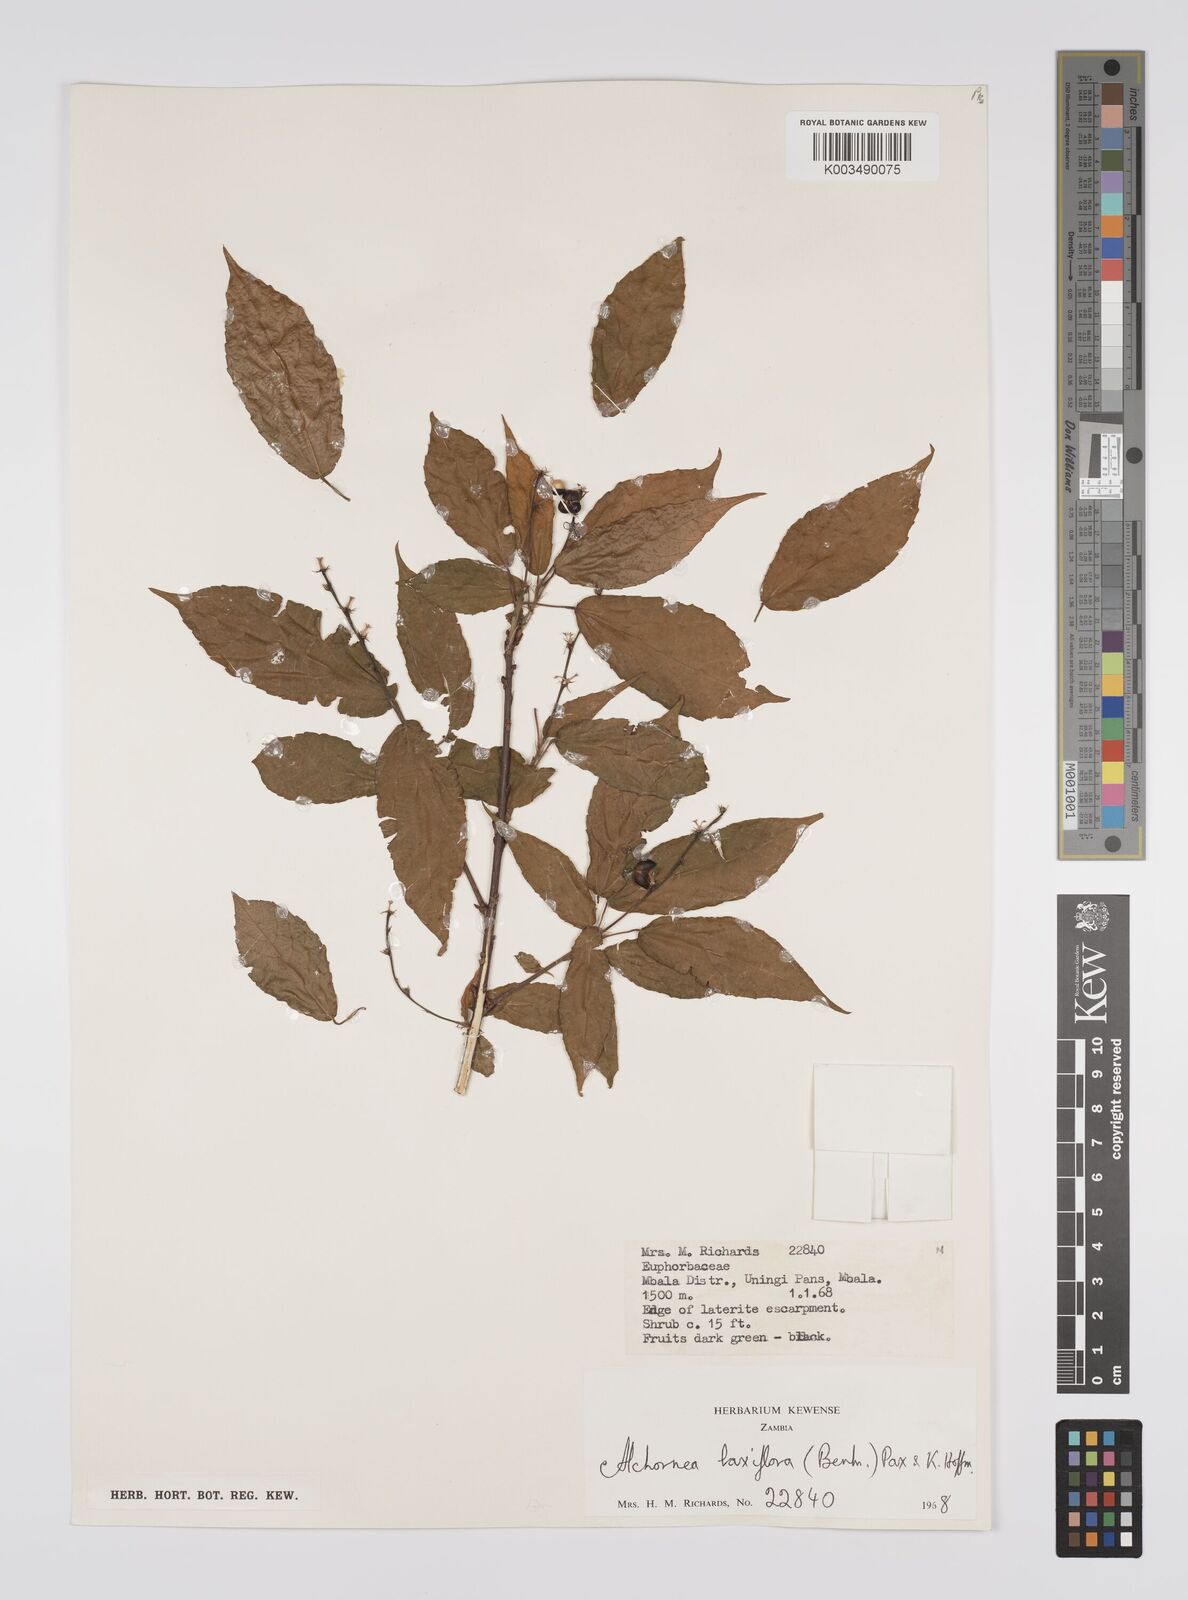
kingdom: Plantae
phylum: Tracheophyta
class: Magnoliopsida
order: Malpighiales
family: Euphorbiaceae
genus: Alchornea
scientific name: Alchornea laxiflora
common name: Lowveld bead-string
